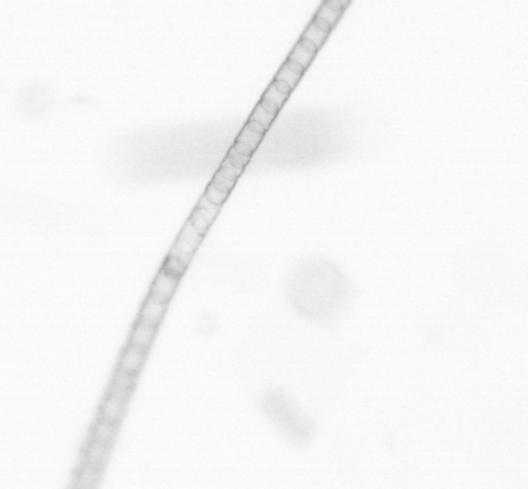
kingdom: Chromista
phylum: Ochrophyta
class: Bacillariophyceae
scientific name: Bacillariophyceae
